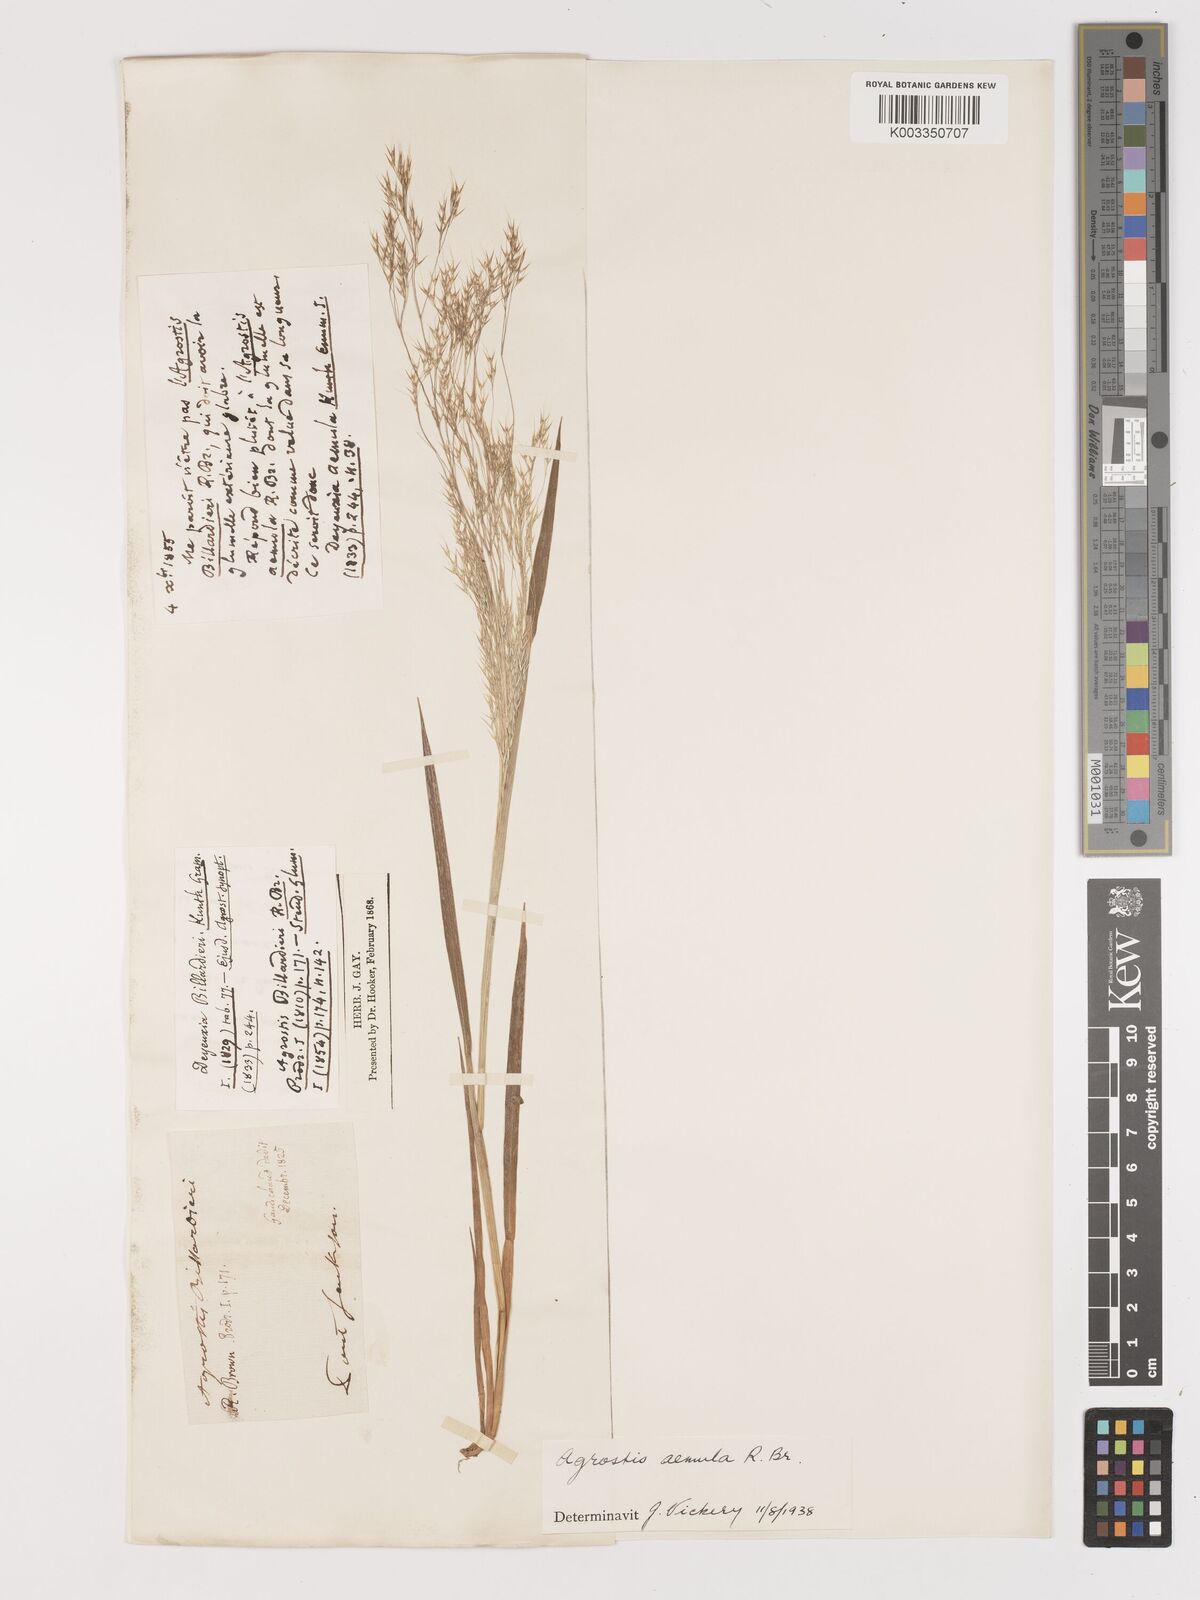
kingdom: Plantae
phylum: Tracheophyta
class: Liliopsida
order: Poales
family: Poaceae
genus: Lachnagrostis
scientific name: Lachnagrostis aemula
